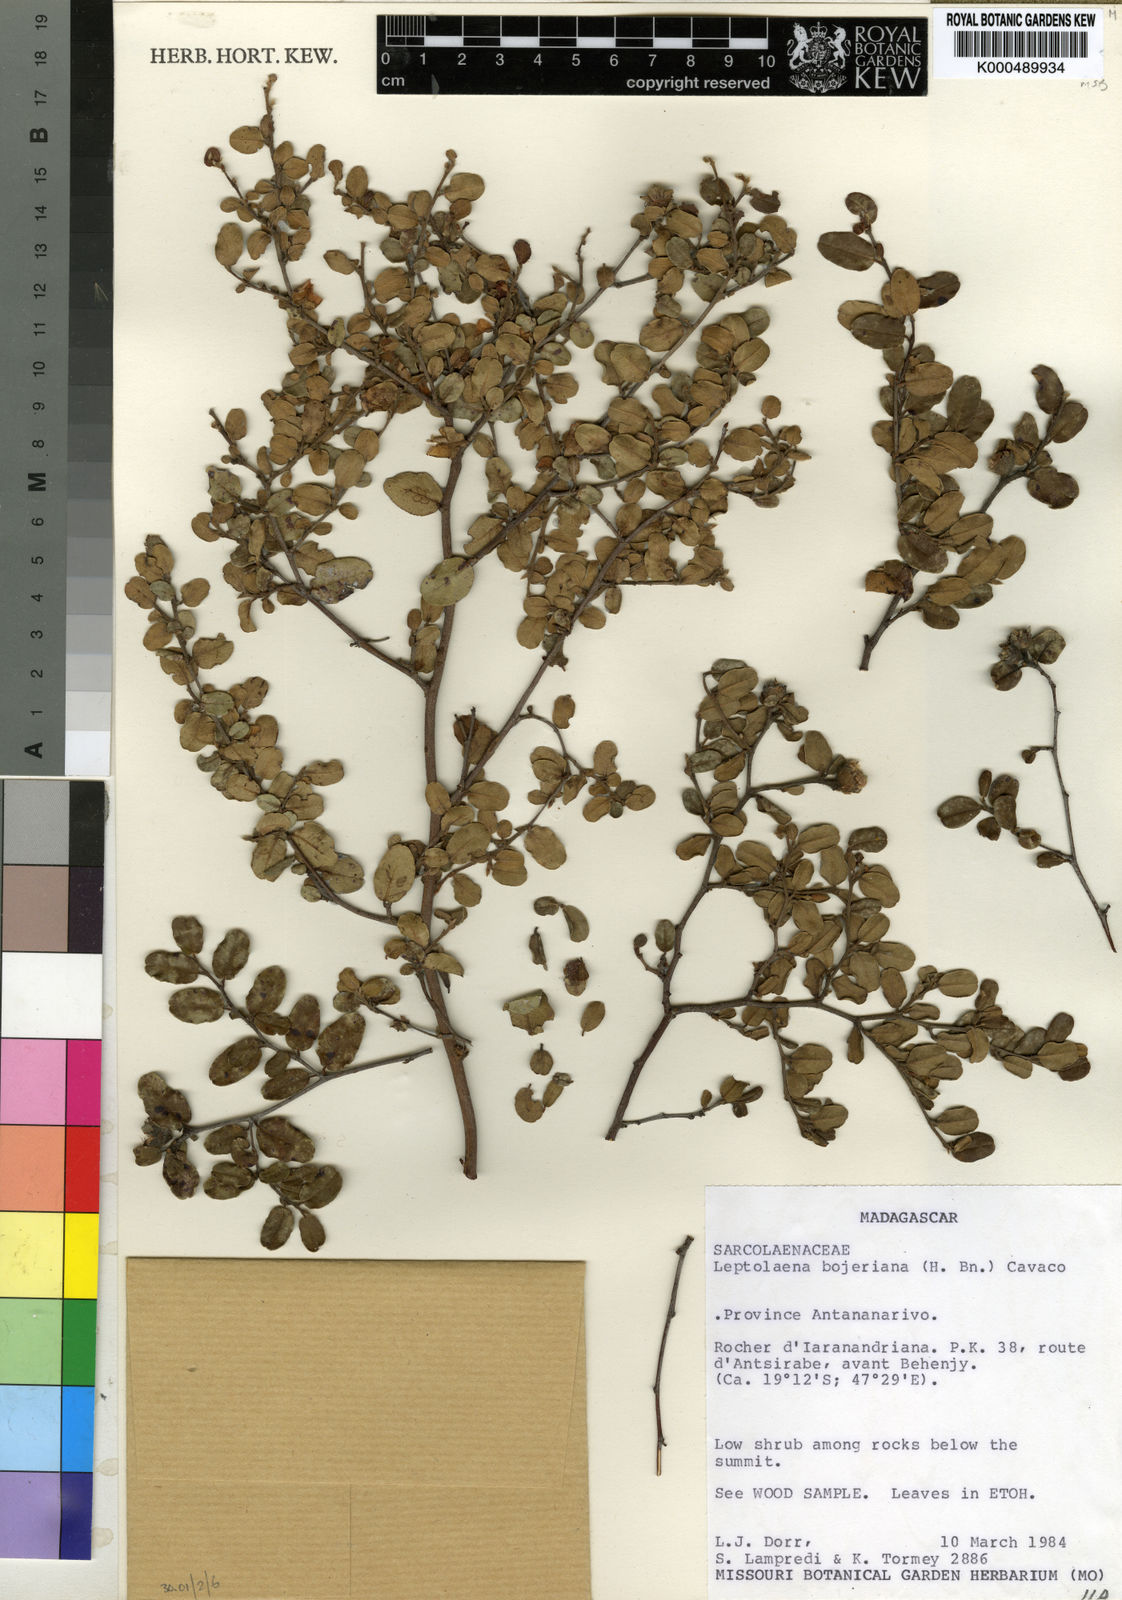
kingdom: Plantae
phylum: Tracheophyta
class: Magnoliopsida
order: Malvales
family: Sarcolaenaceae
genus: Xerochlamys
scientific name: Xerochlamys bojeriana
